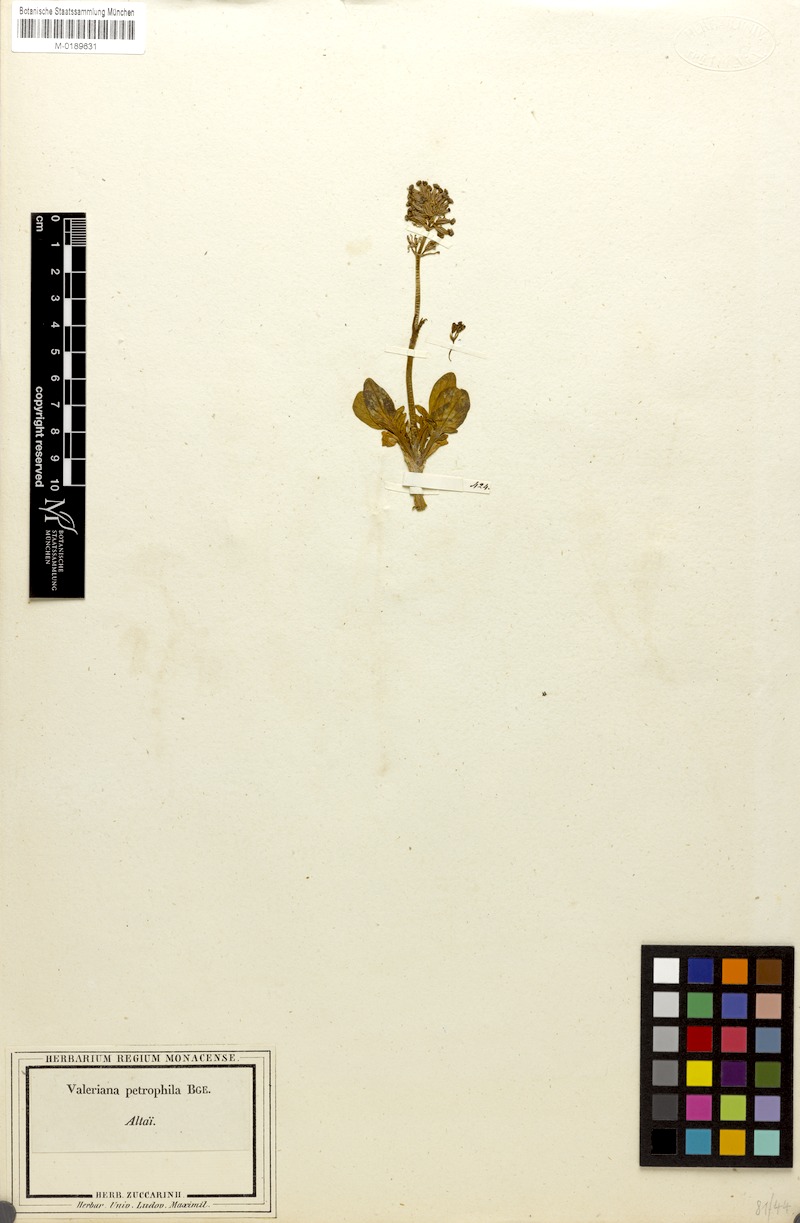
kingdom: Plantae
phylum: Tracheophyta
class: Magnoliopsida
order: Dipsacales
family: Caprifoliaceae
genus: Valeriana
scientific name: Valeriana petrophila
